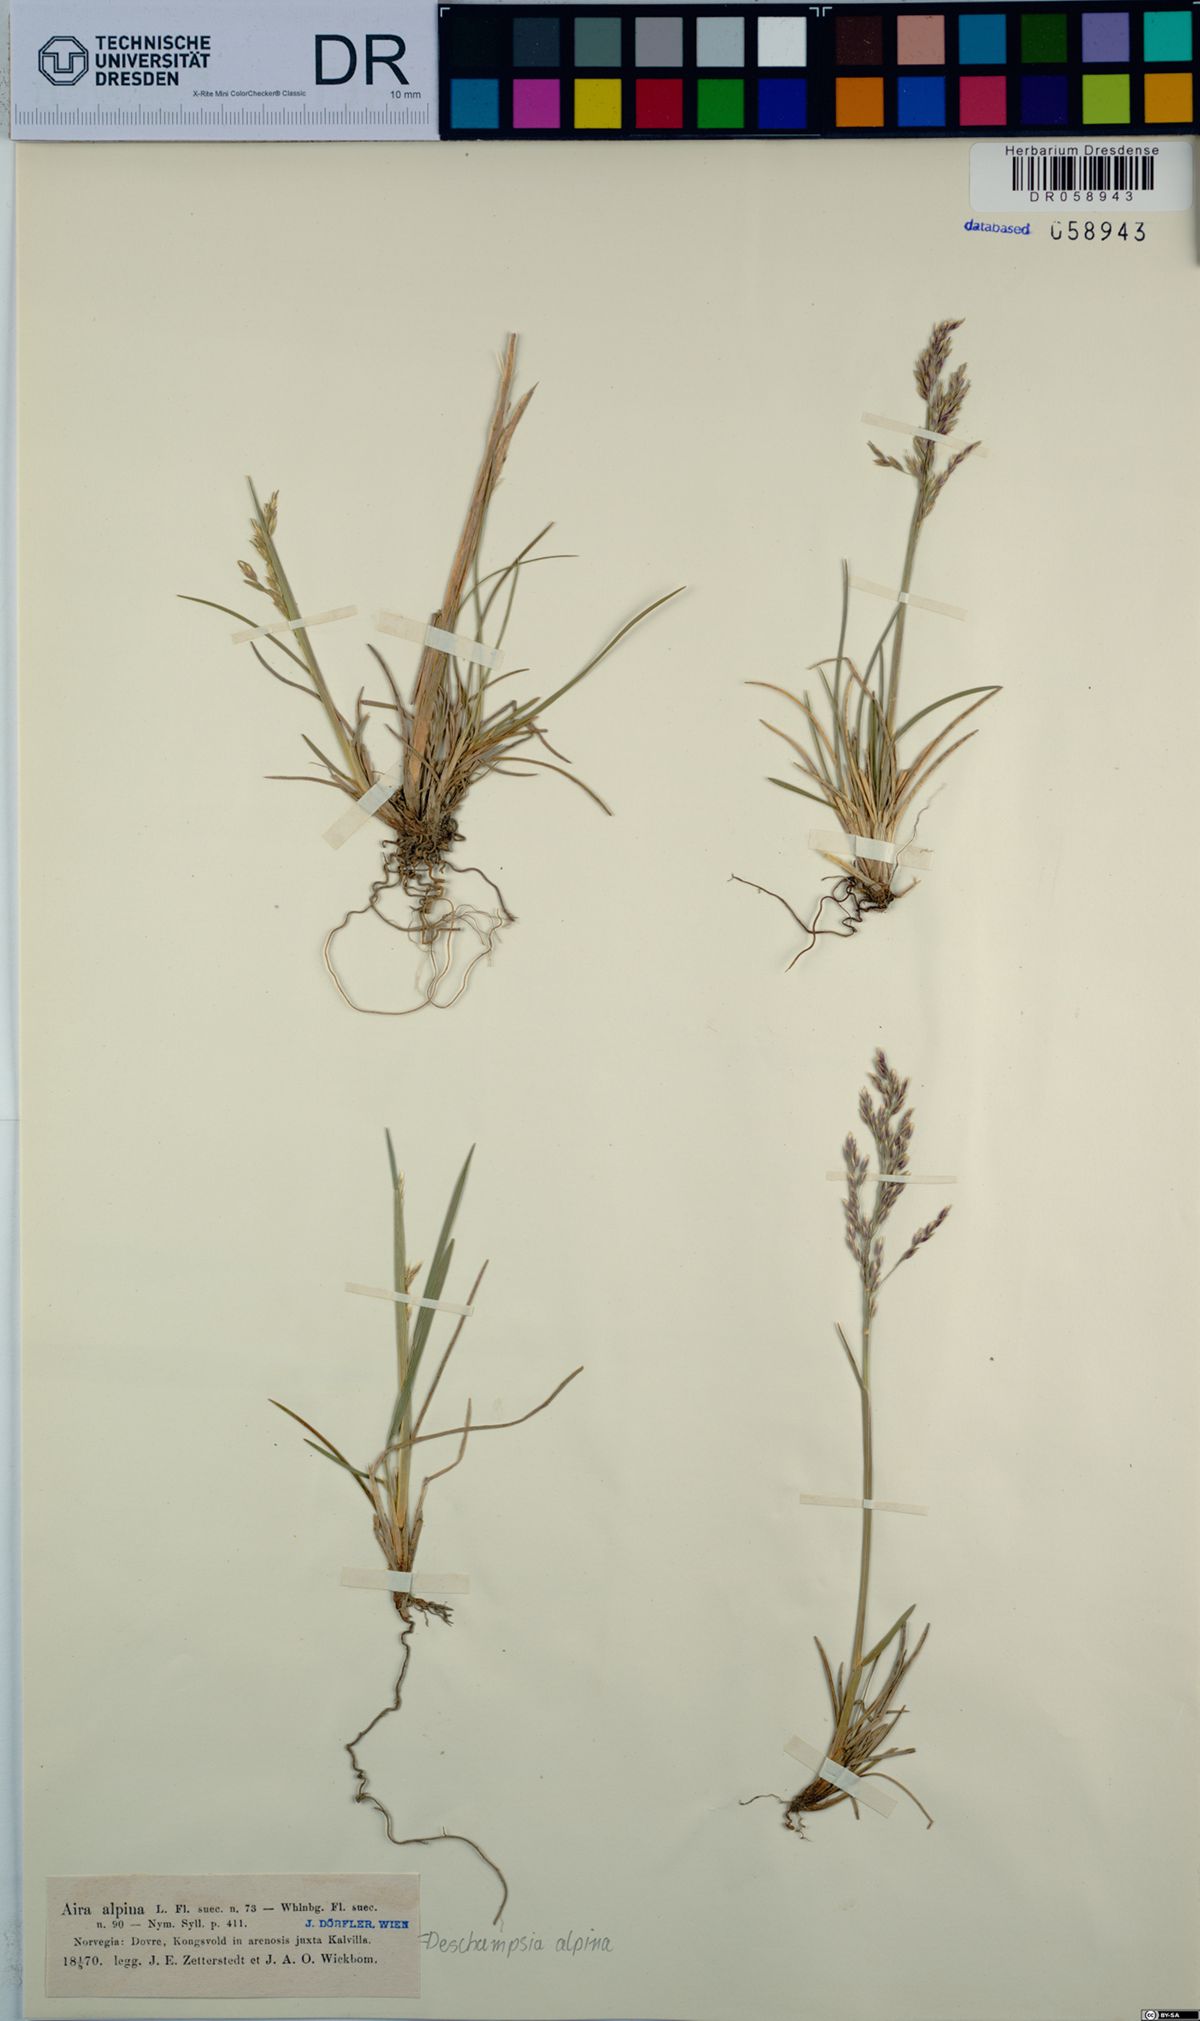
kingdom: Plantae
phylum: Tracheophyta
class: Liliopsida
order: Poales
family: Poaceae
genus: Deschampsia
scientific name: Deschampsia cespitosa
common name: Tufted hair-grass
